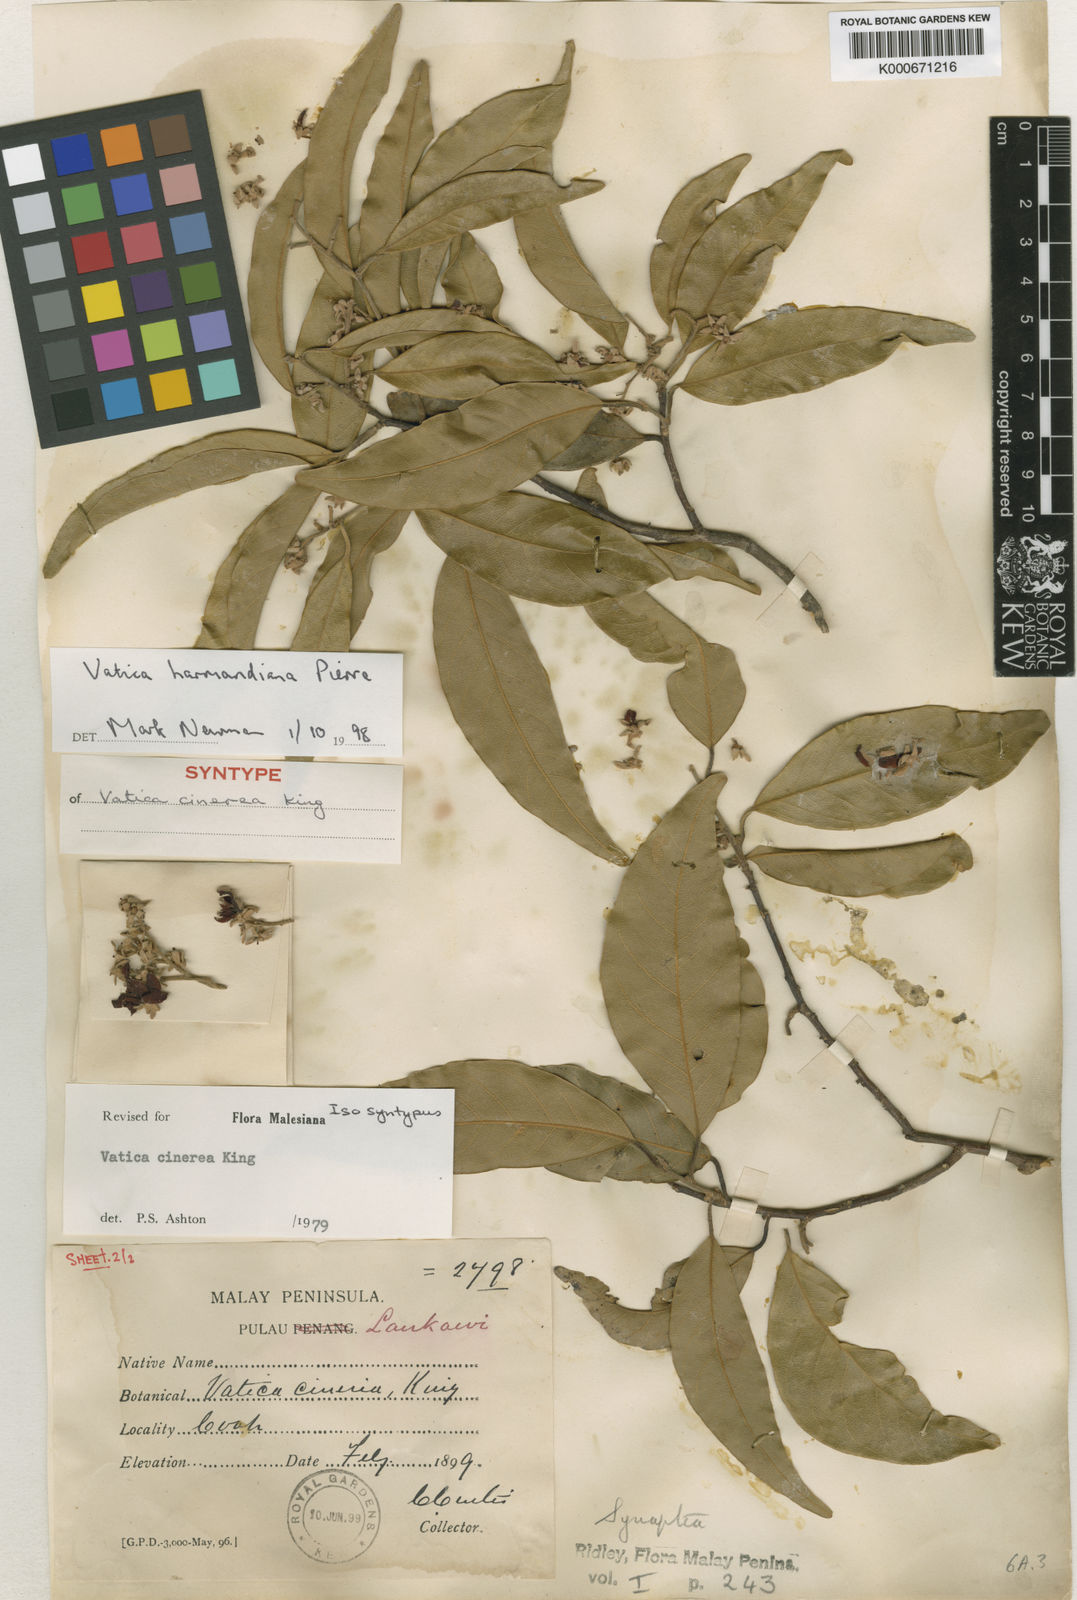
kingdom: Plantae
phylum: Tracheophyta
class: Magnoliopsida
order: Malvales
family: Dipterocarpaceae
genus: Vatica
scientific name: Vatica harmandiana
